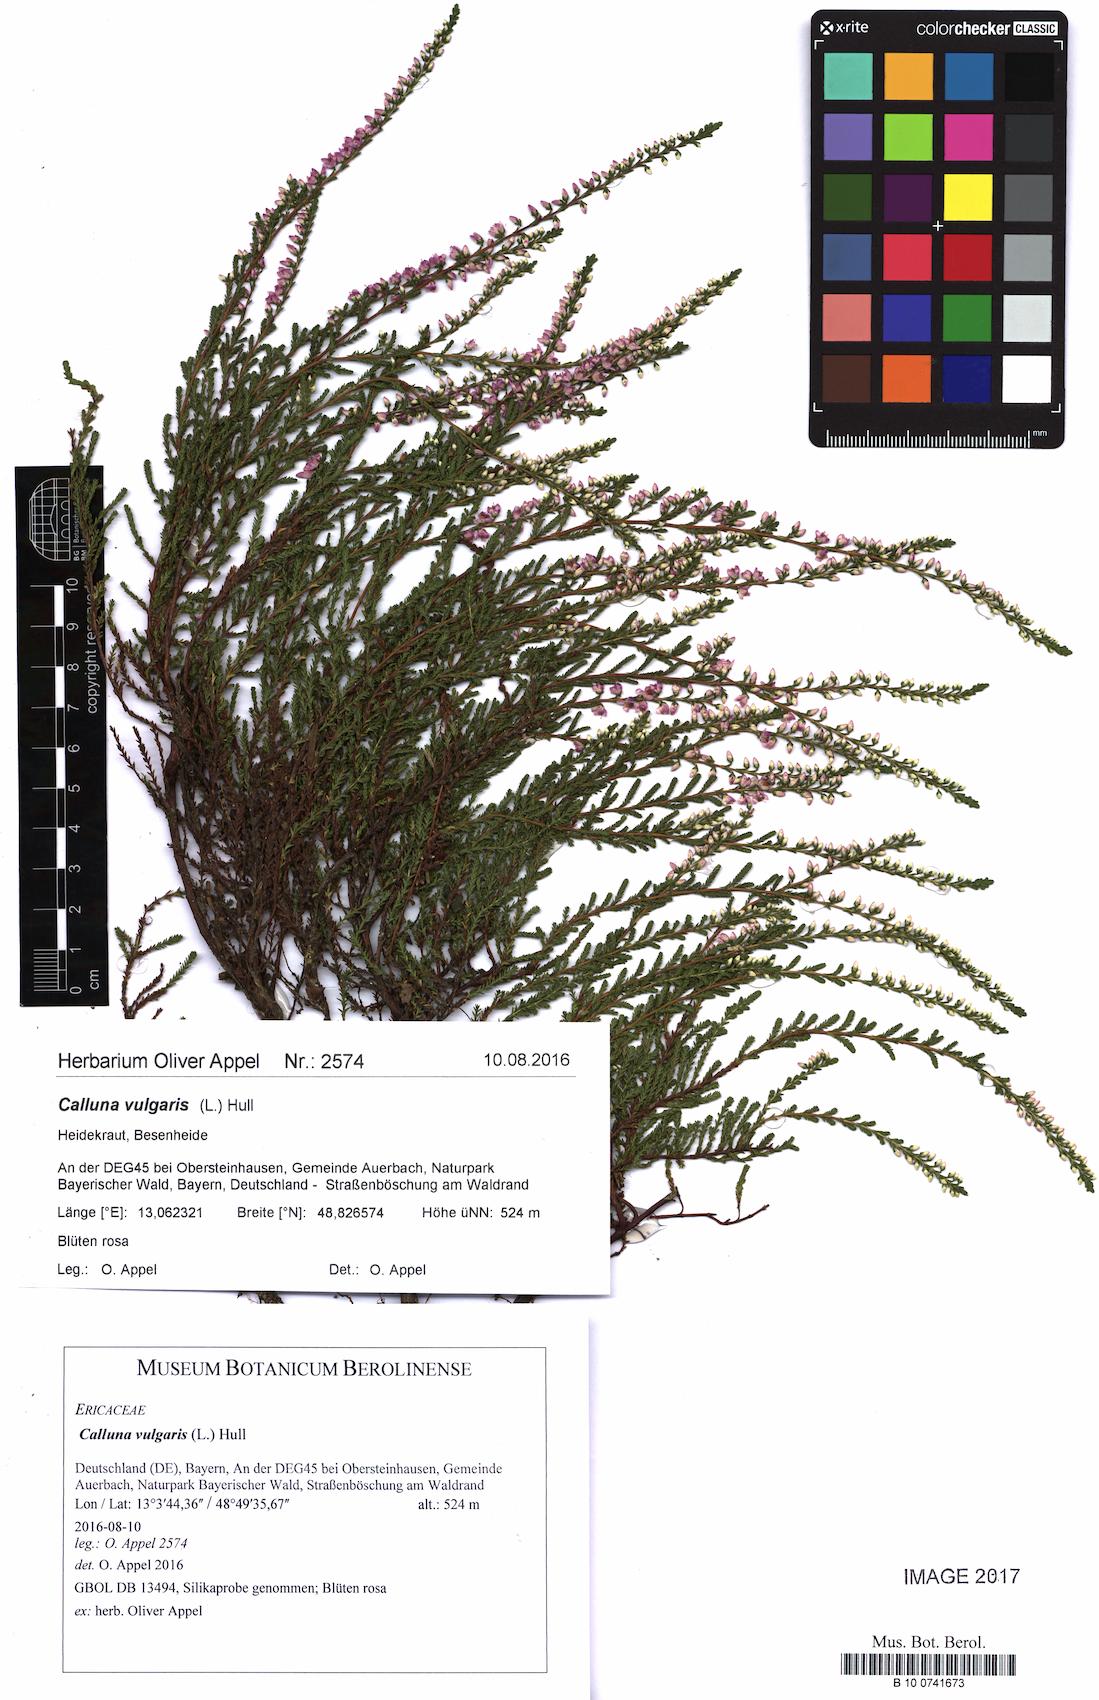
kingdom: Plantae
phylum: Tracheophyta
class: Magnoliopsida
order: Ericales
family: Ericaceae
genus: Calluna
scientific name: Calluna vulgaris
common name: Heather
